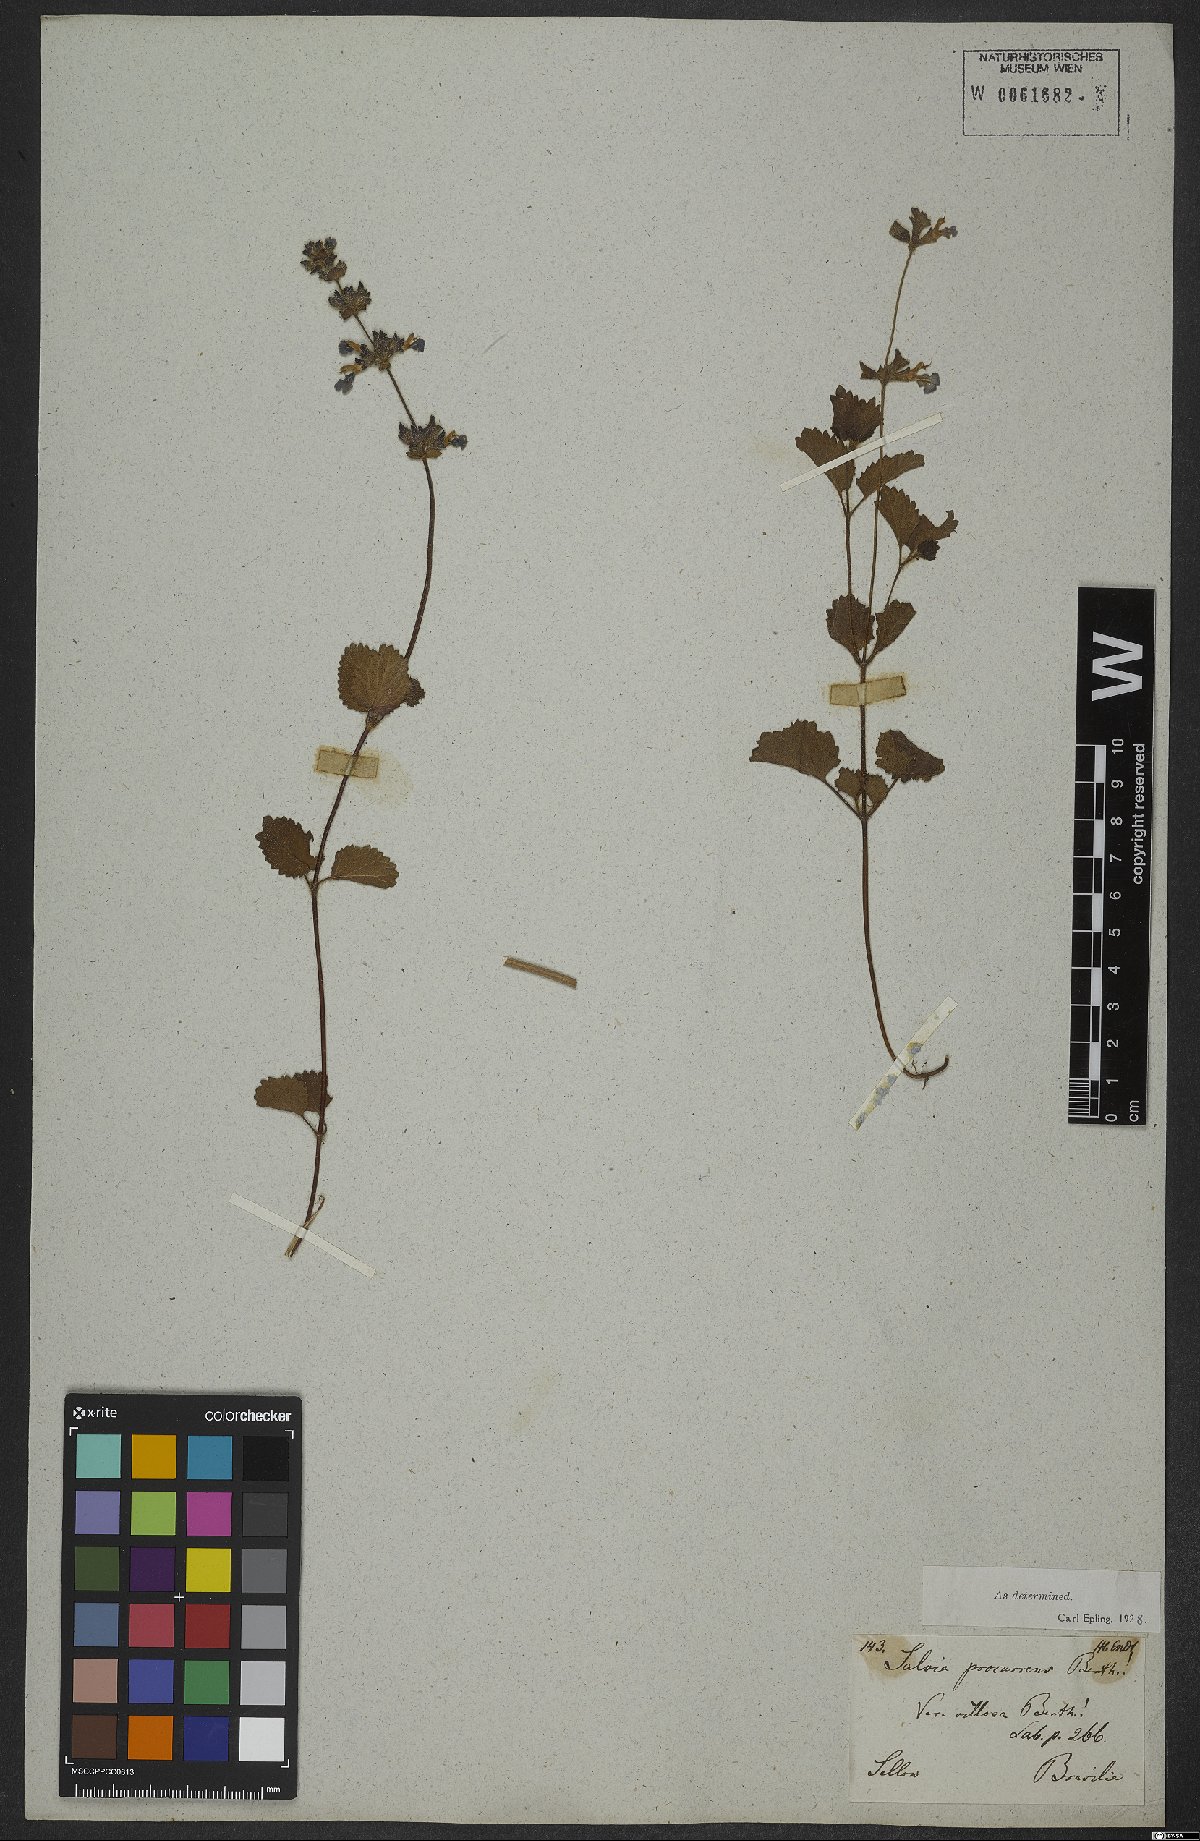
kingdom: Plantae
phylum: Tracheophyta
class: Magnoliopsida
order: Lamiales
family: Lamiaceae
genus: Salvia
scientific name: Salvia procurrens
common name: Blue creeper
